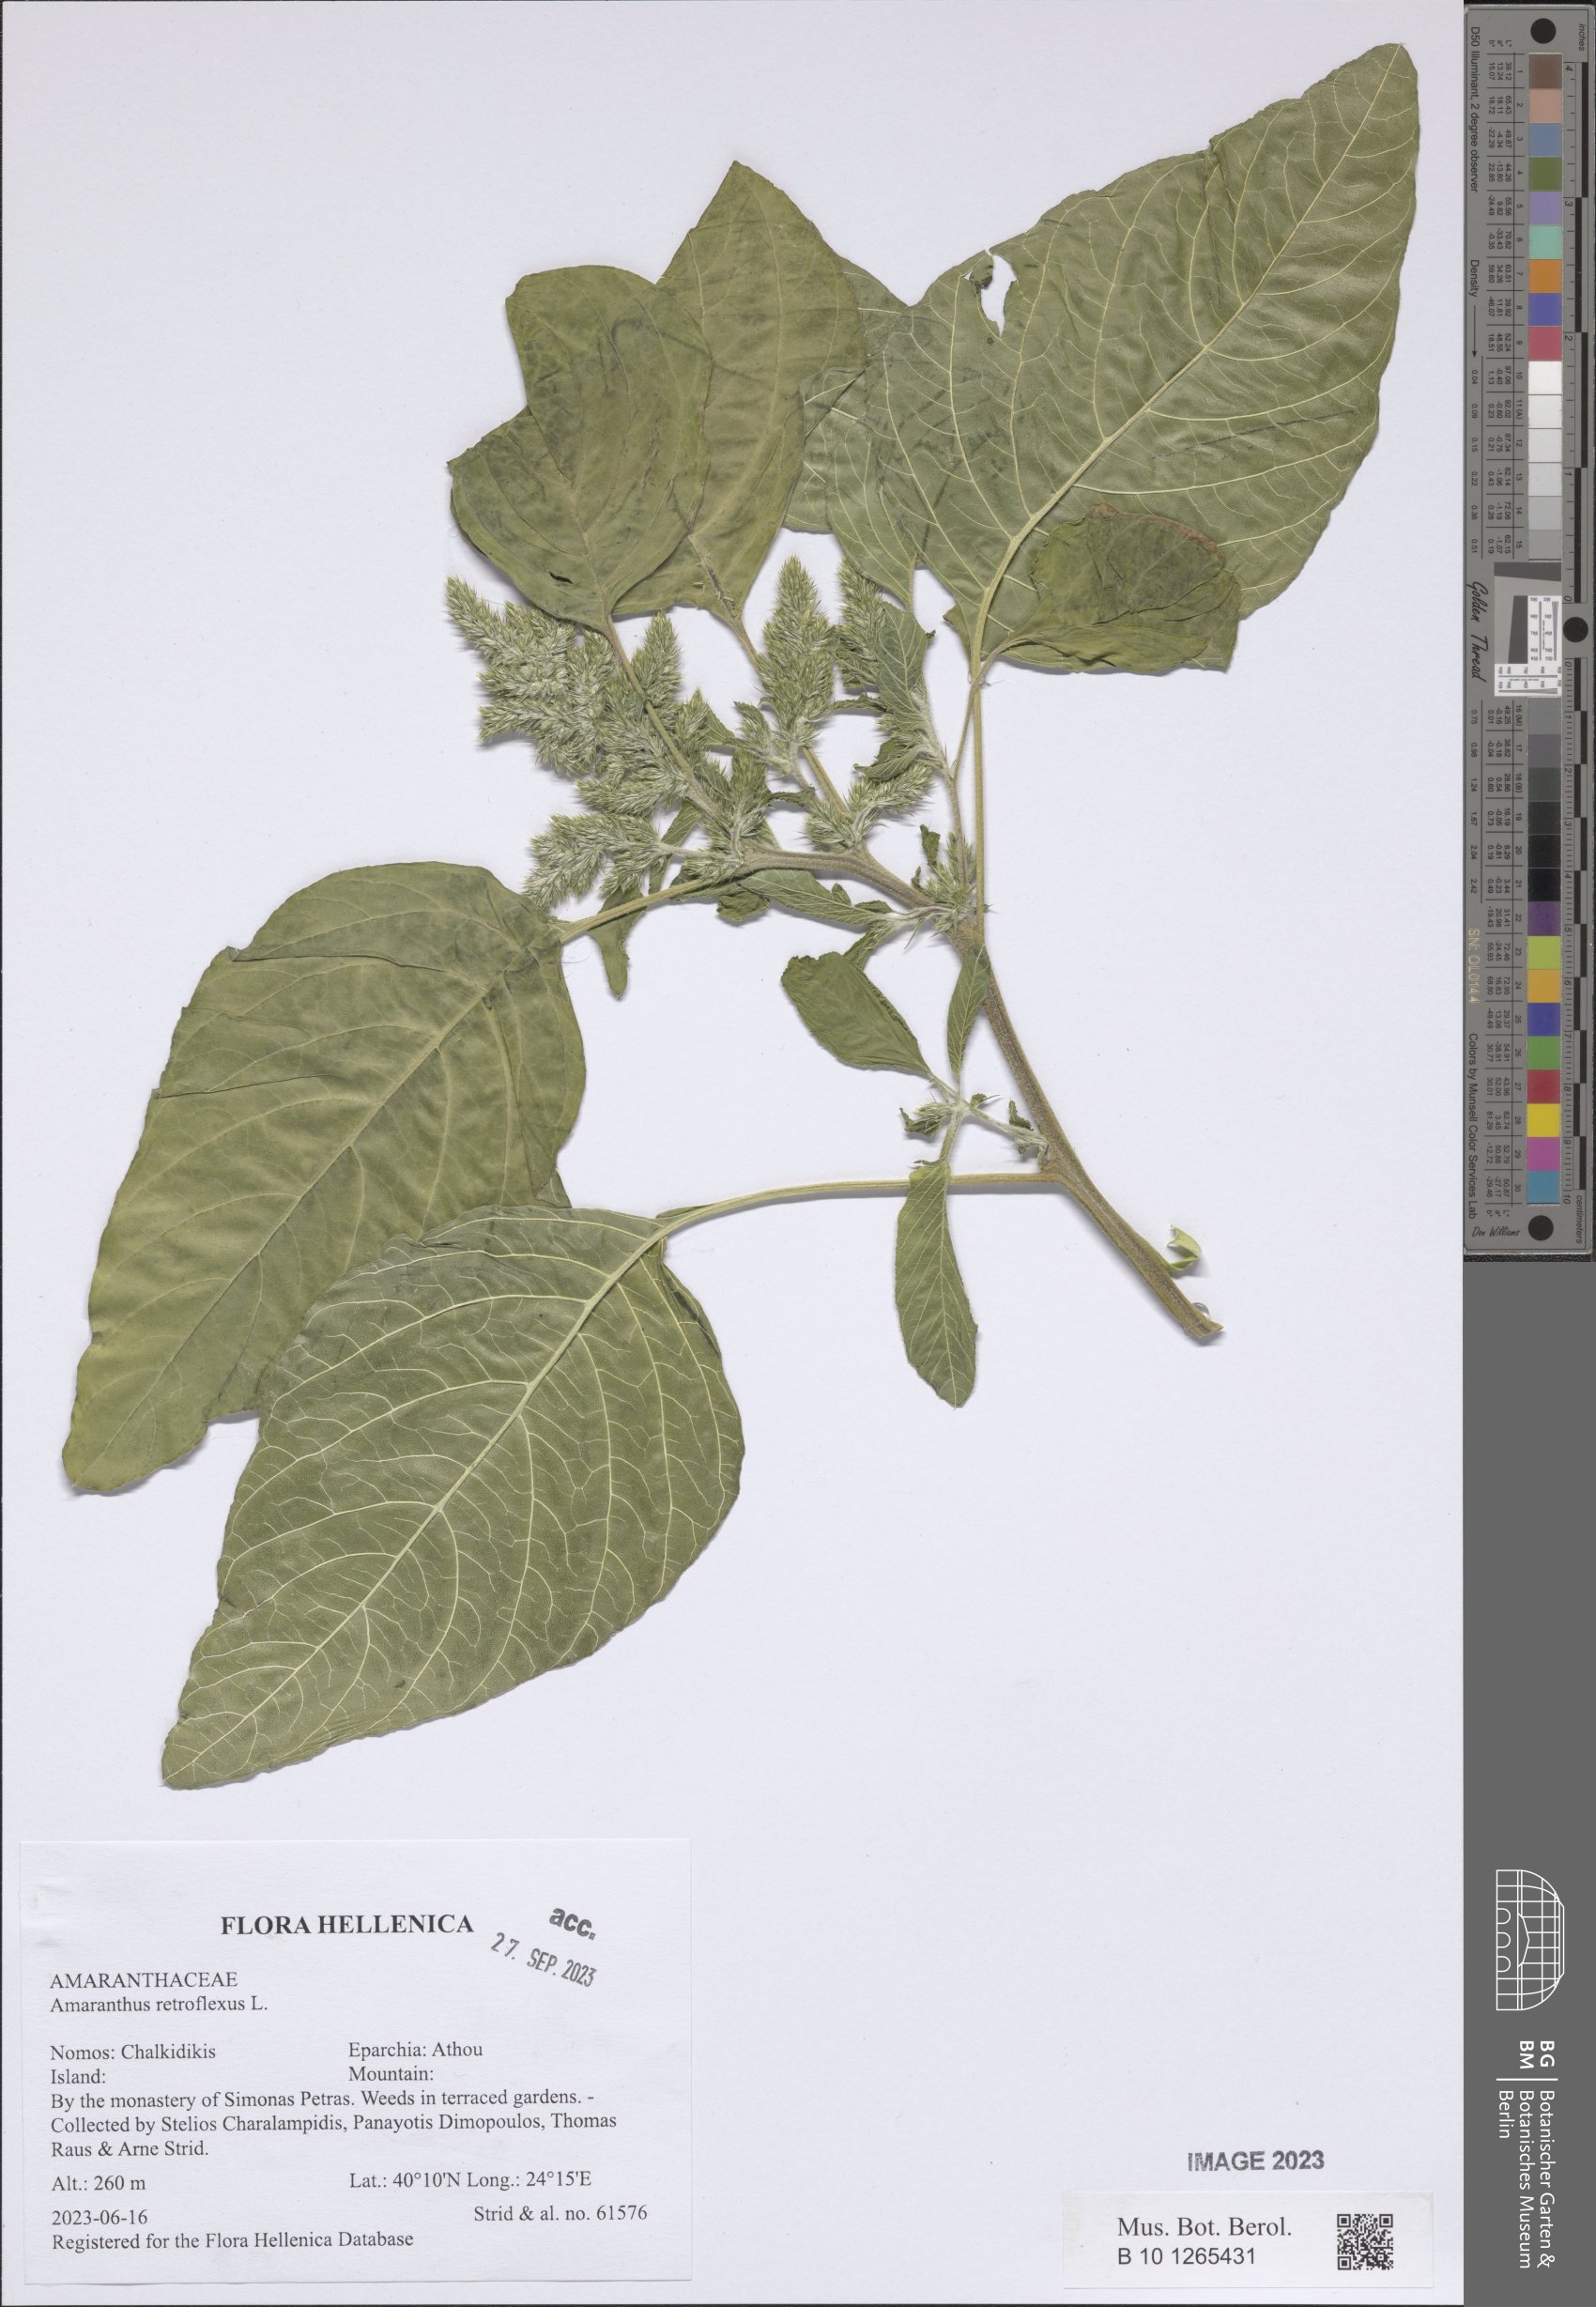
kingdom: Plantae
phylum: Tracheophyta
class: Magnoliopsida
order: Caryophyllales
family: Amaranthaceae
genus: Amaranthus
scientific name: Amaranthus retroflexus
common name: Redroot amaranth
